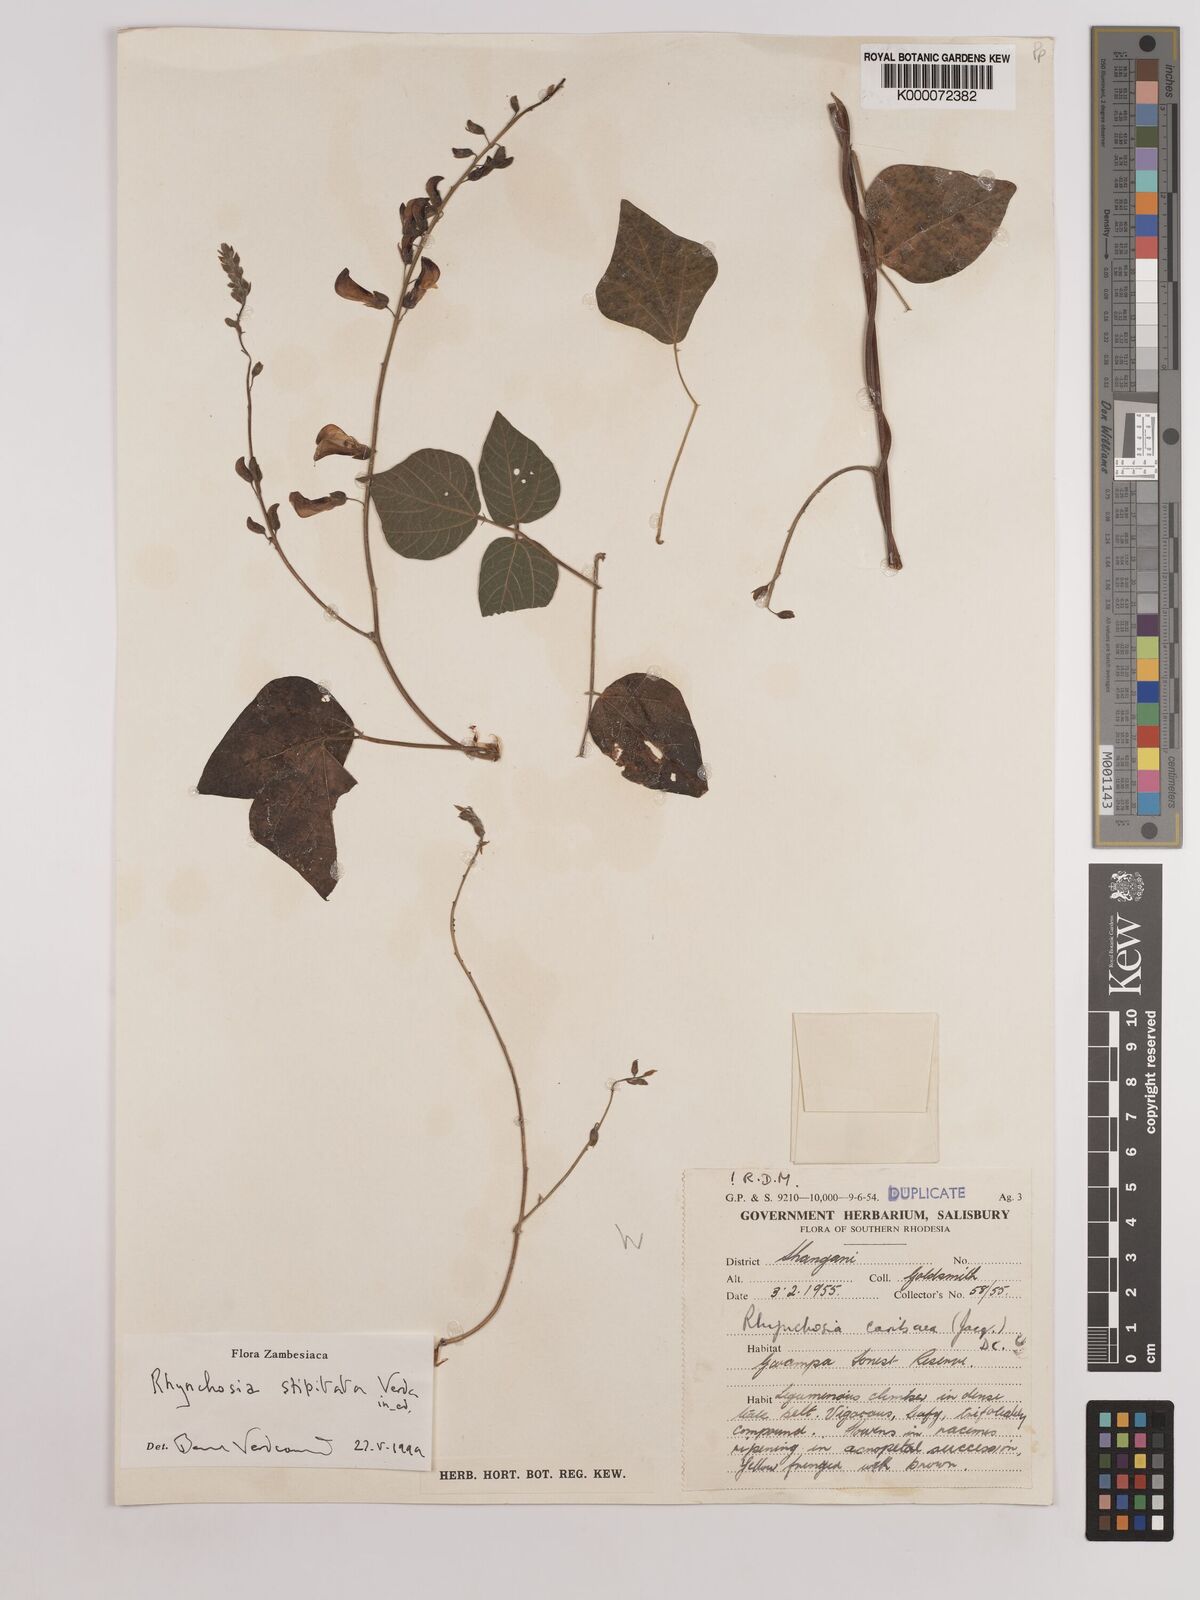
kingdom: Plantae
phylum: Tracheophyta
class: Magnoliopsida
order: Fabales
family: Fabaceae
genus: Rhynchosia
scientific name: Rhynchosia stipitata
